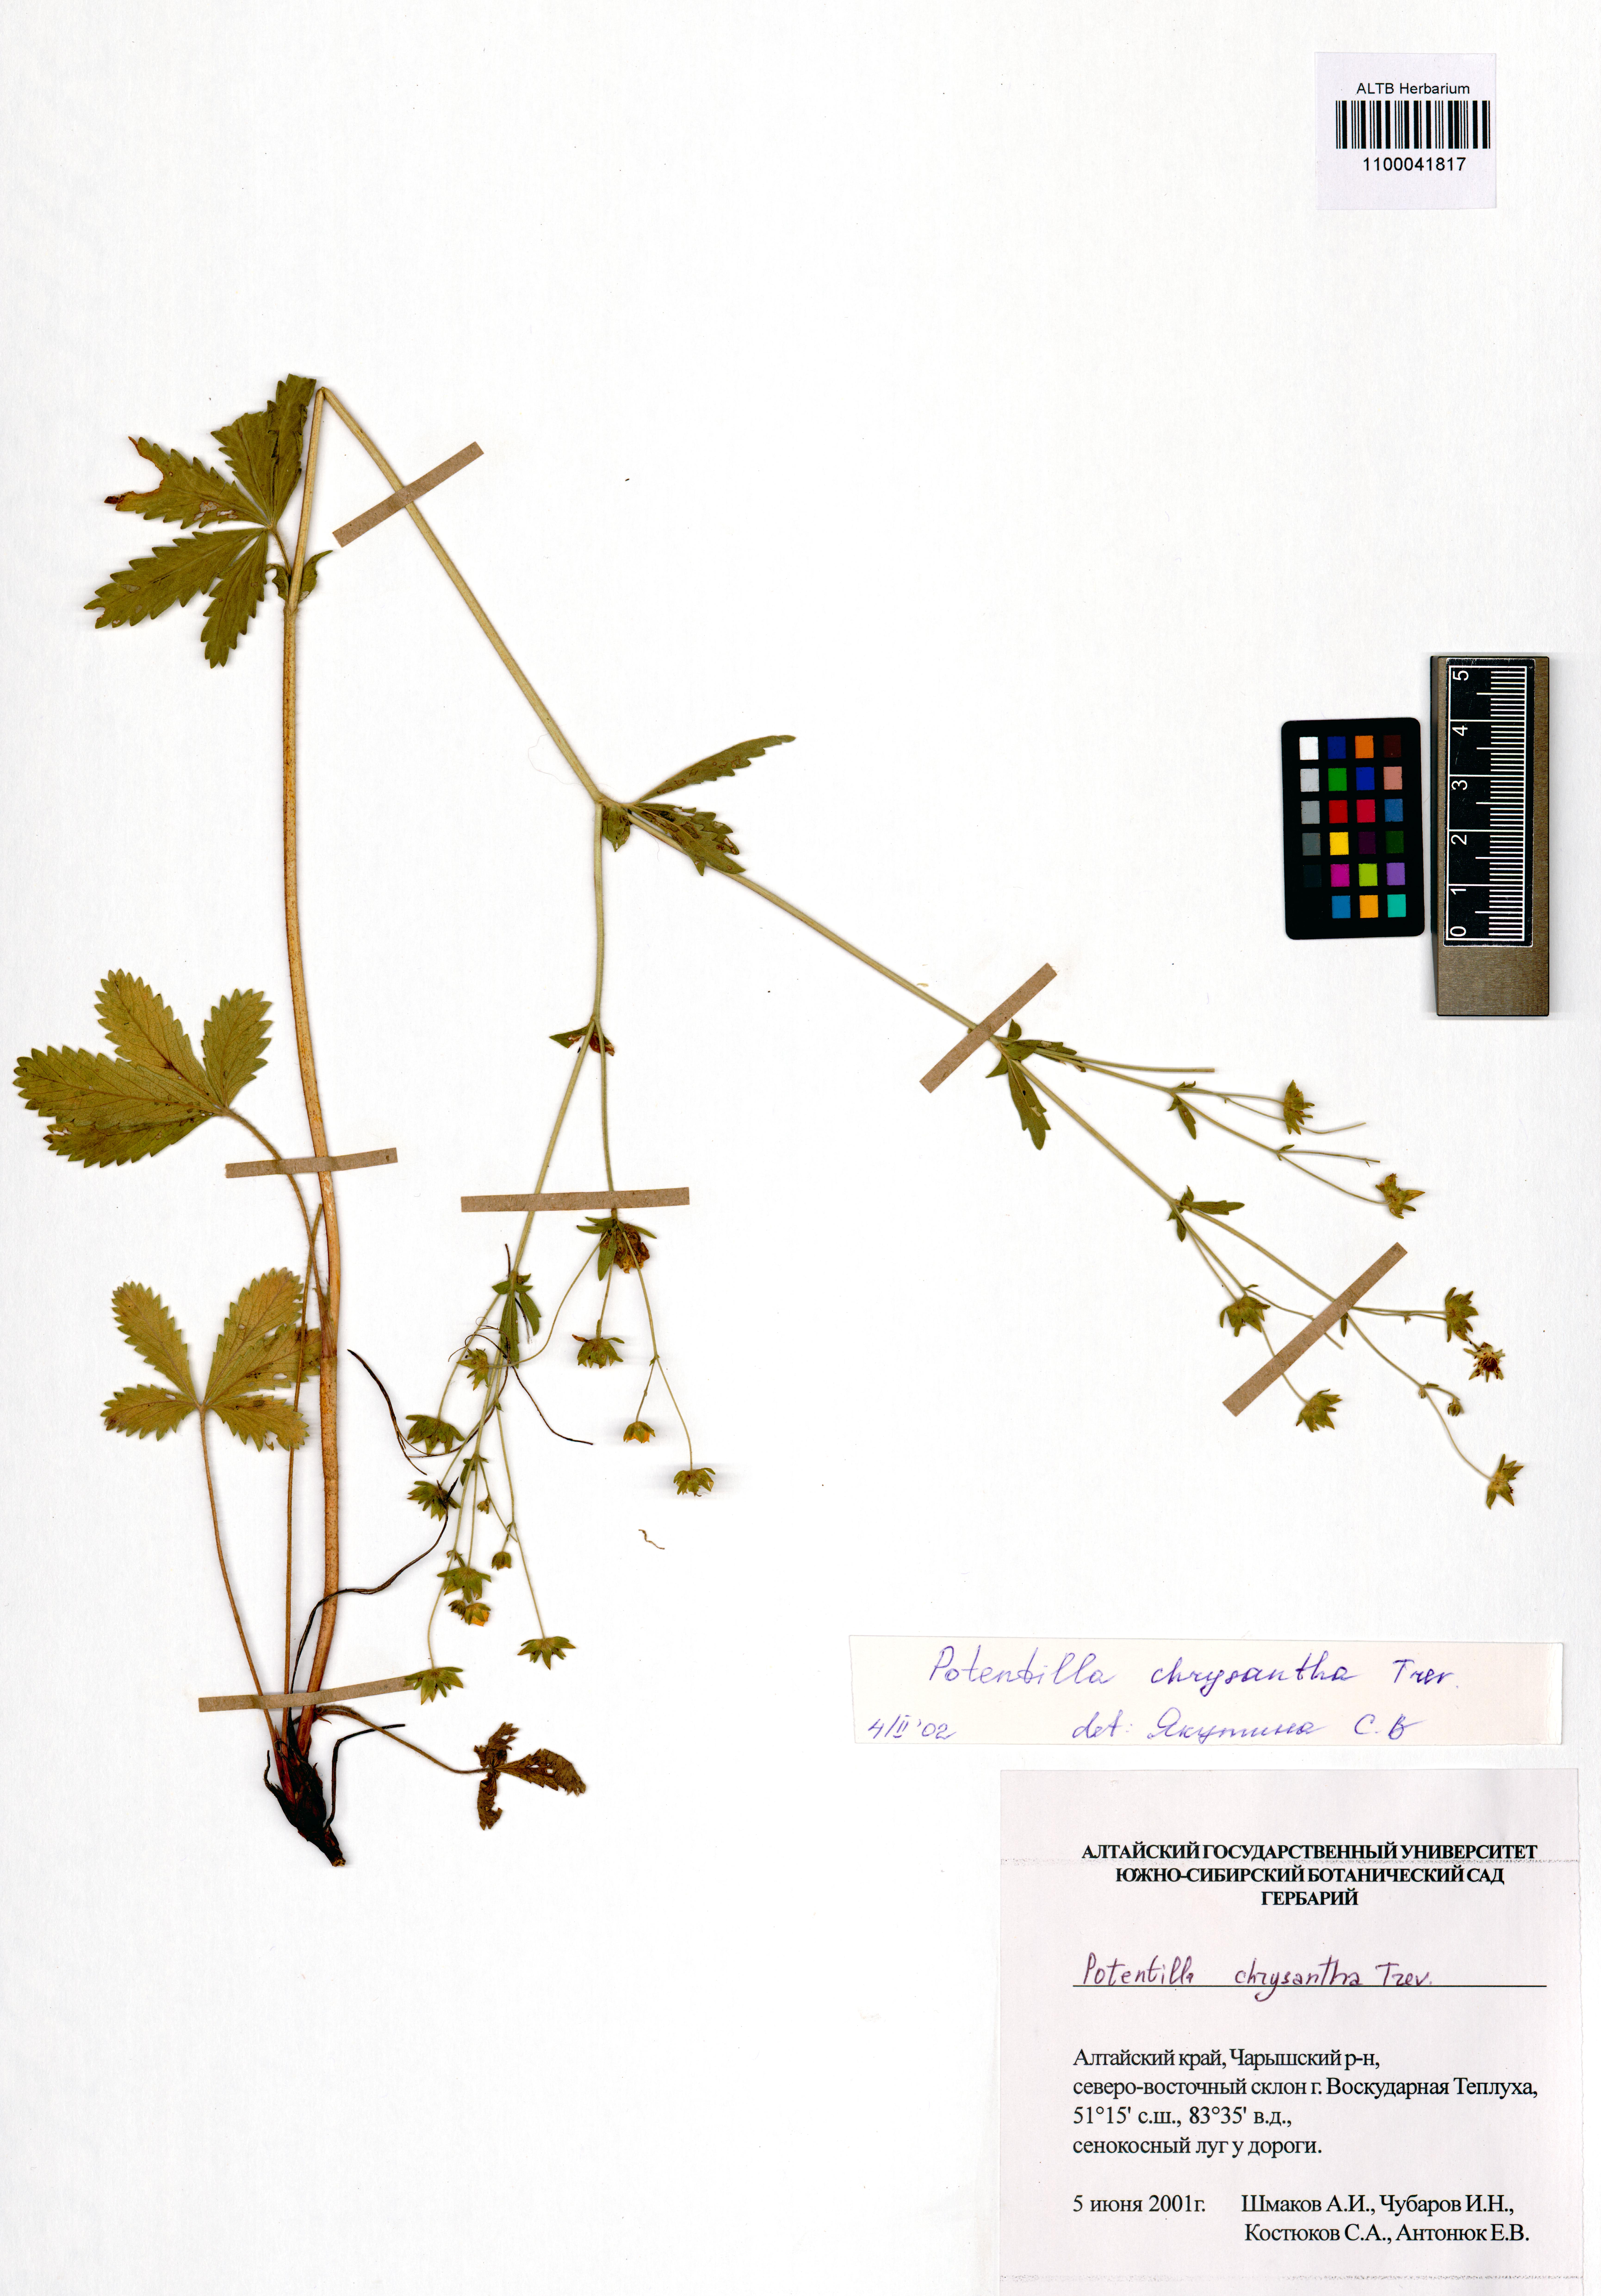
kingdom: Plantae
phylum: Tracheophyta
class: Magnoliopsida
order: Rosales
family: Rosaceae
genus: Potentilla
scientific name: Potentilla chrysantha
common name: Thuringian cinquefoil
